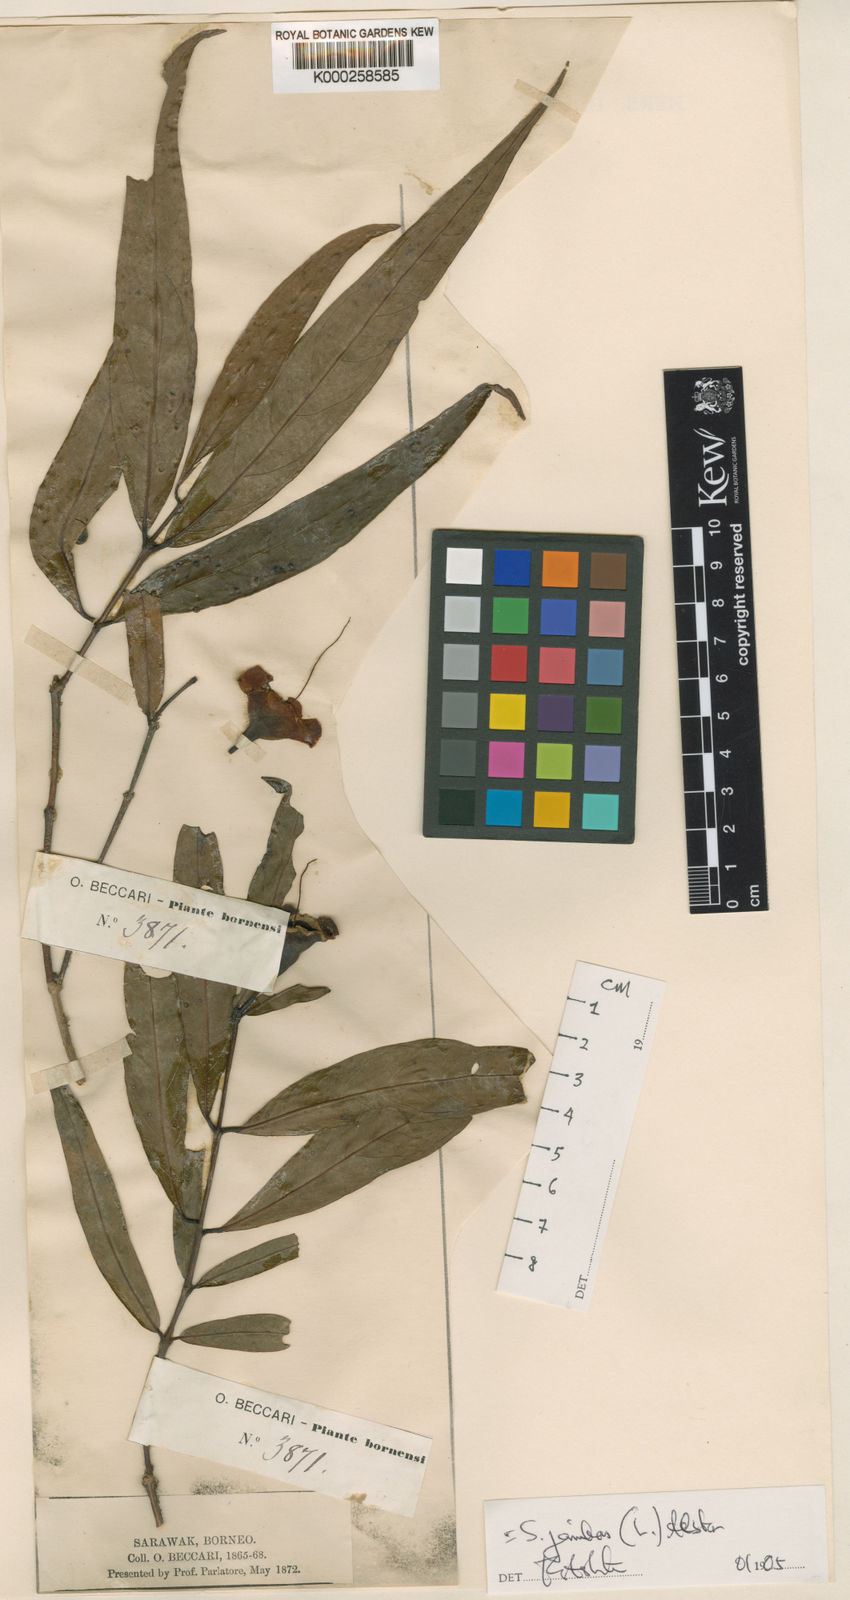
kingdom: Plantae
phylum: Tracheophyta
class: Magnoliopsida
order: Myrtales
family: Myrtaceae
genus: Syzygium
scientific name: Syzygium jambos
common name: Malabar plum
